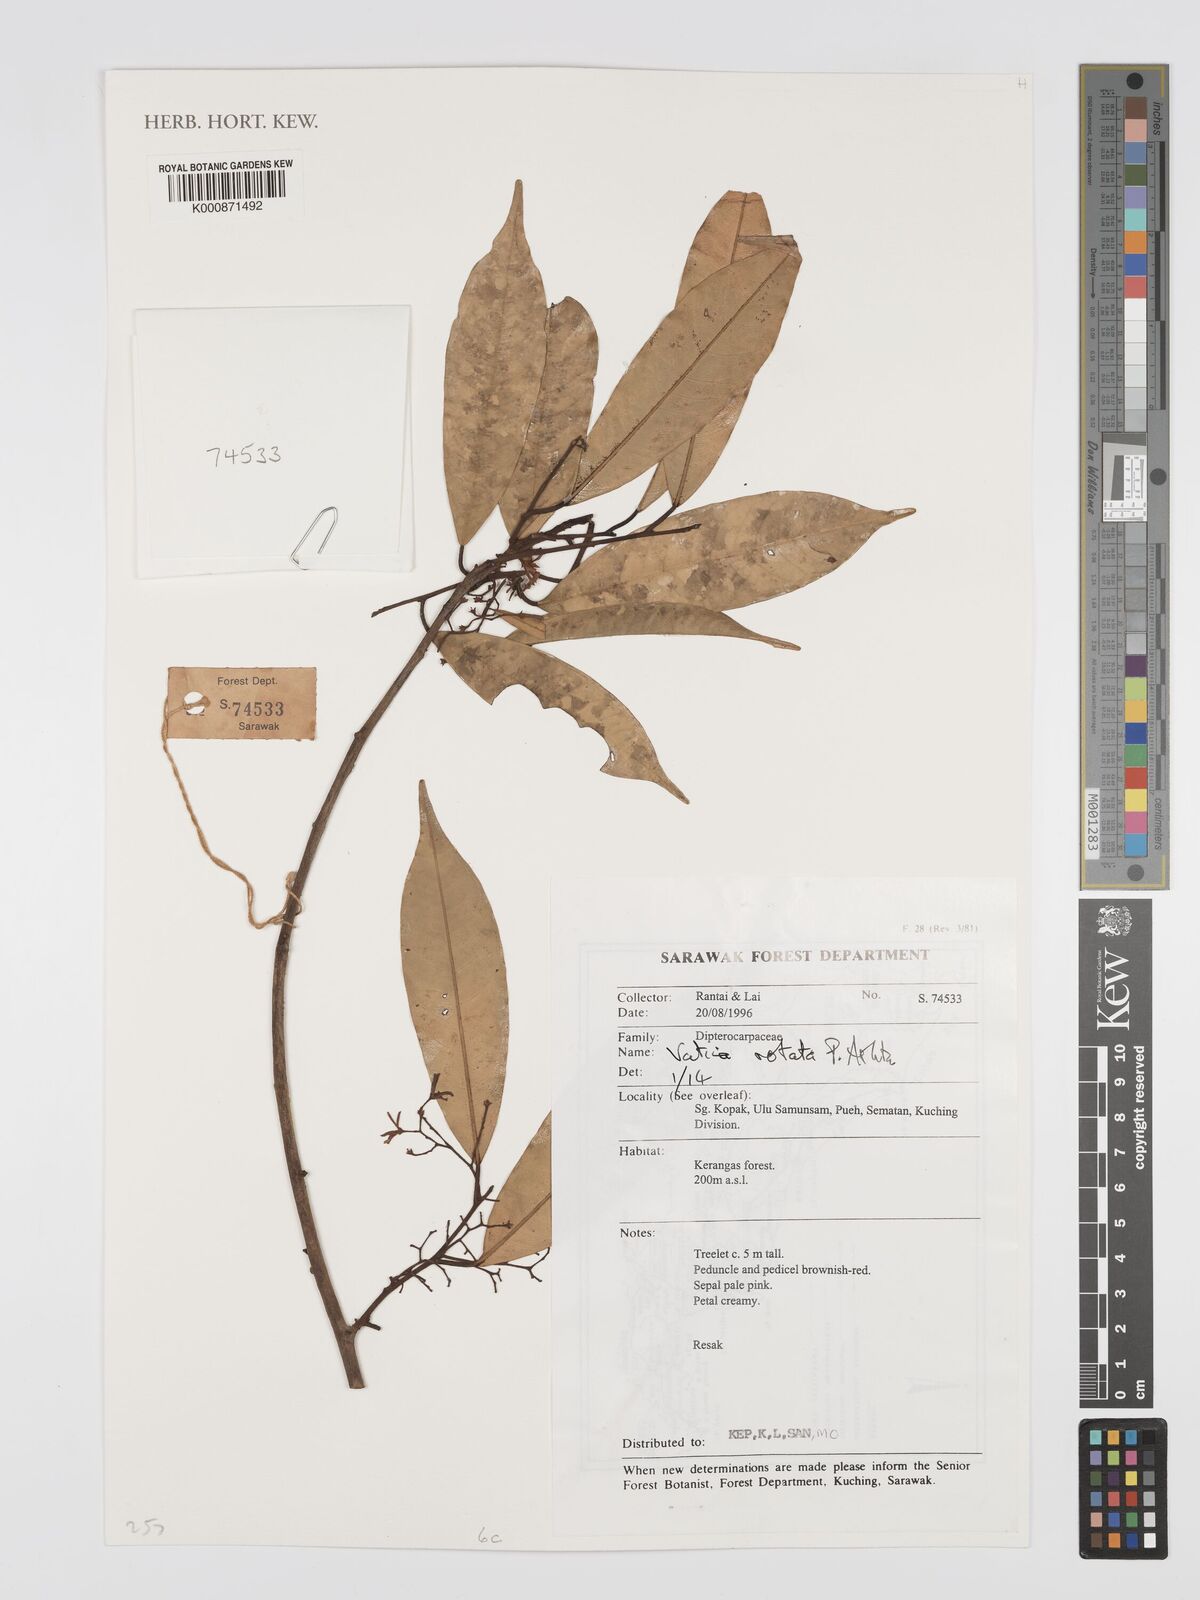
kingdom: Plantae
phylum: Tracheophyta
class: Magnoliopsida
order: Malvales
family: Dipterocarpaceae
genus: Vatica
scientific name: Vatica rotata
